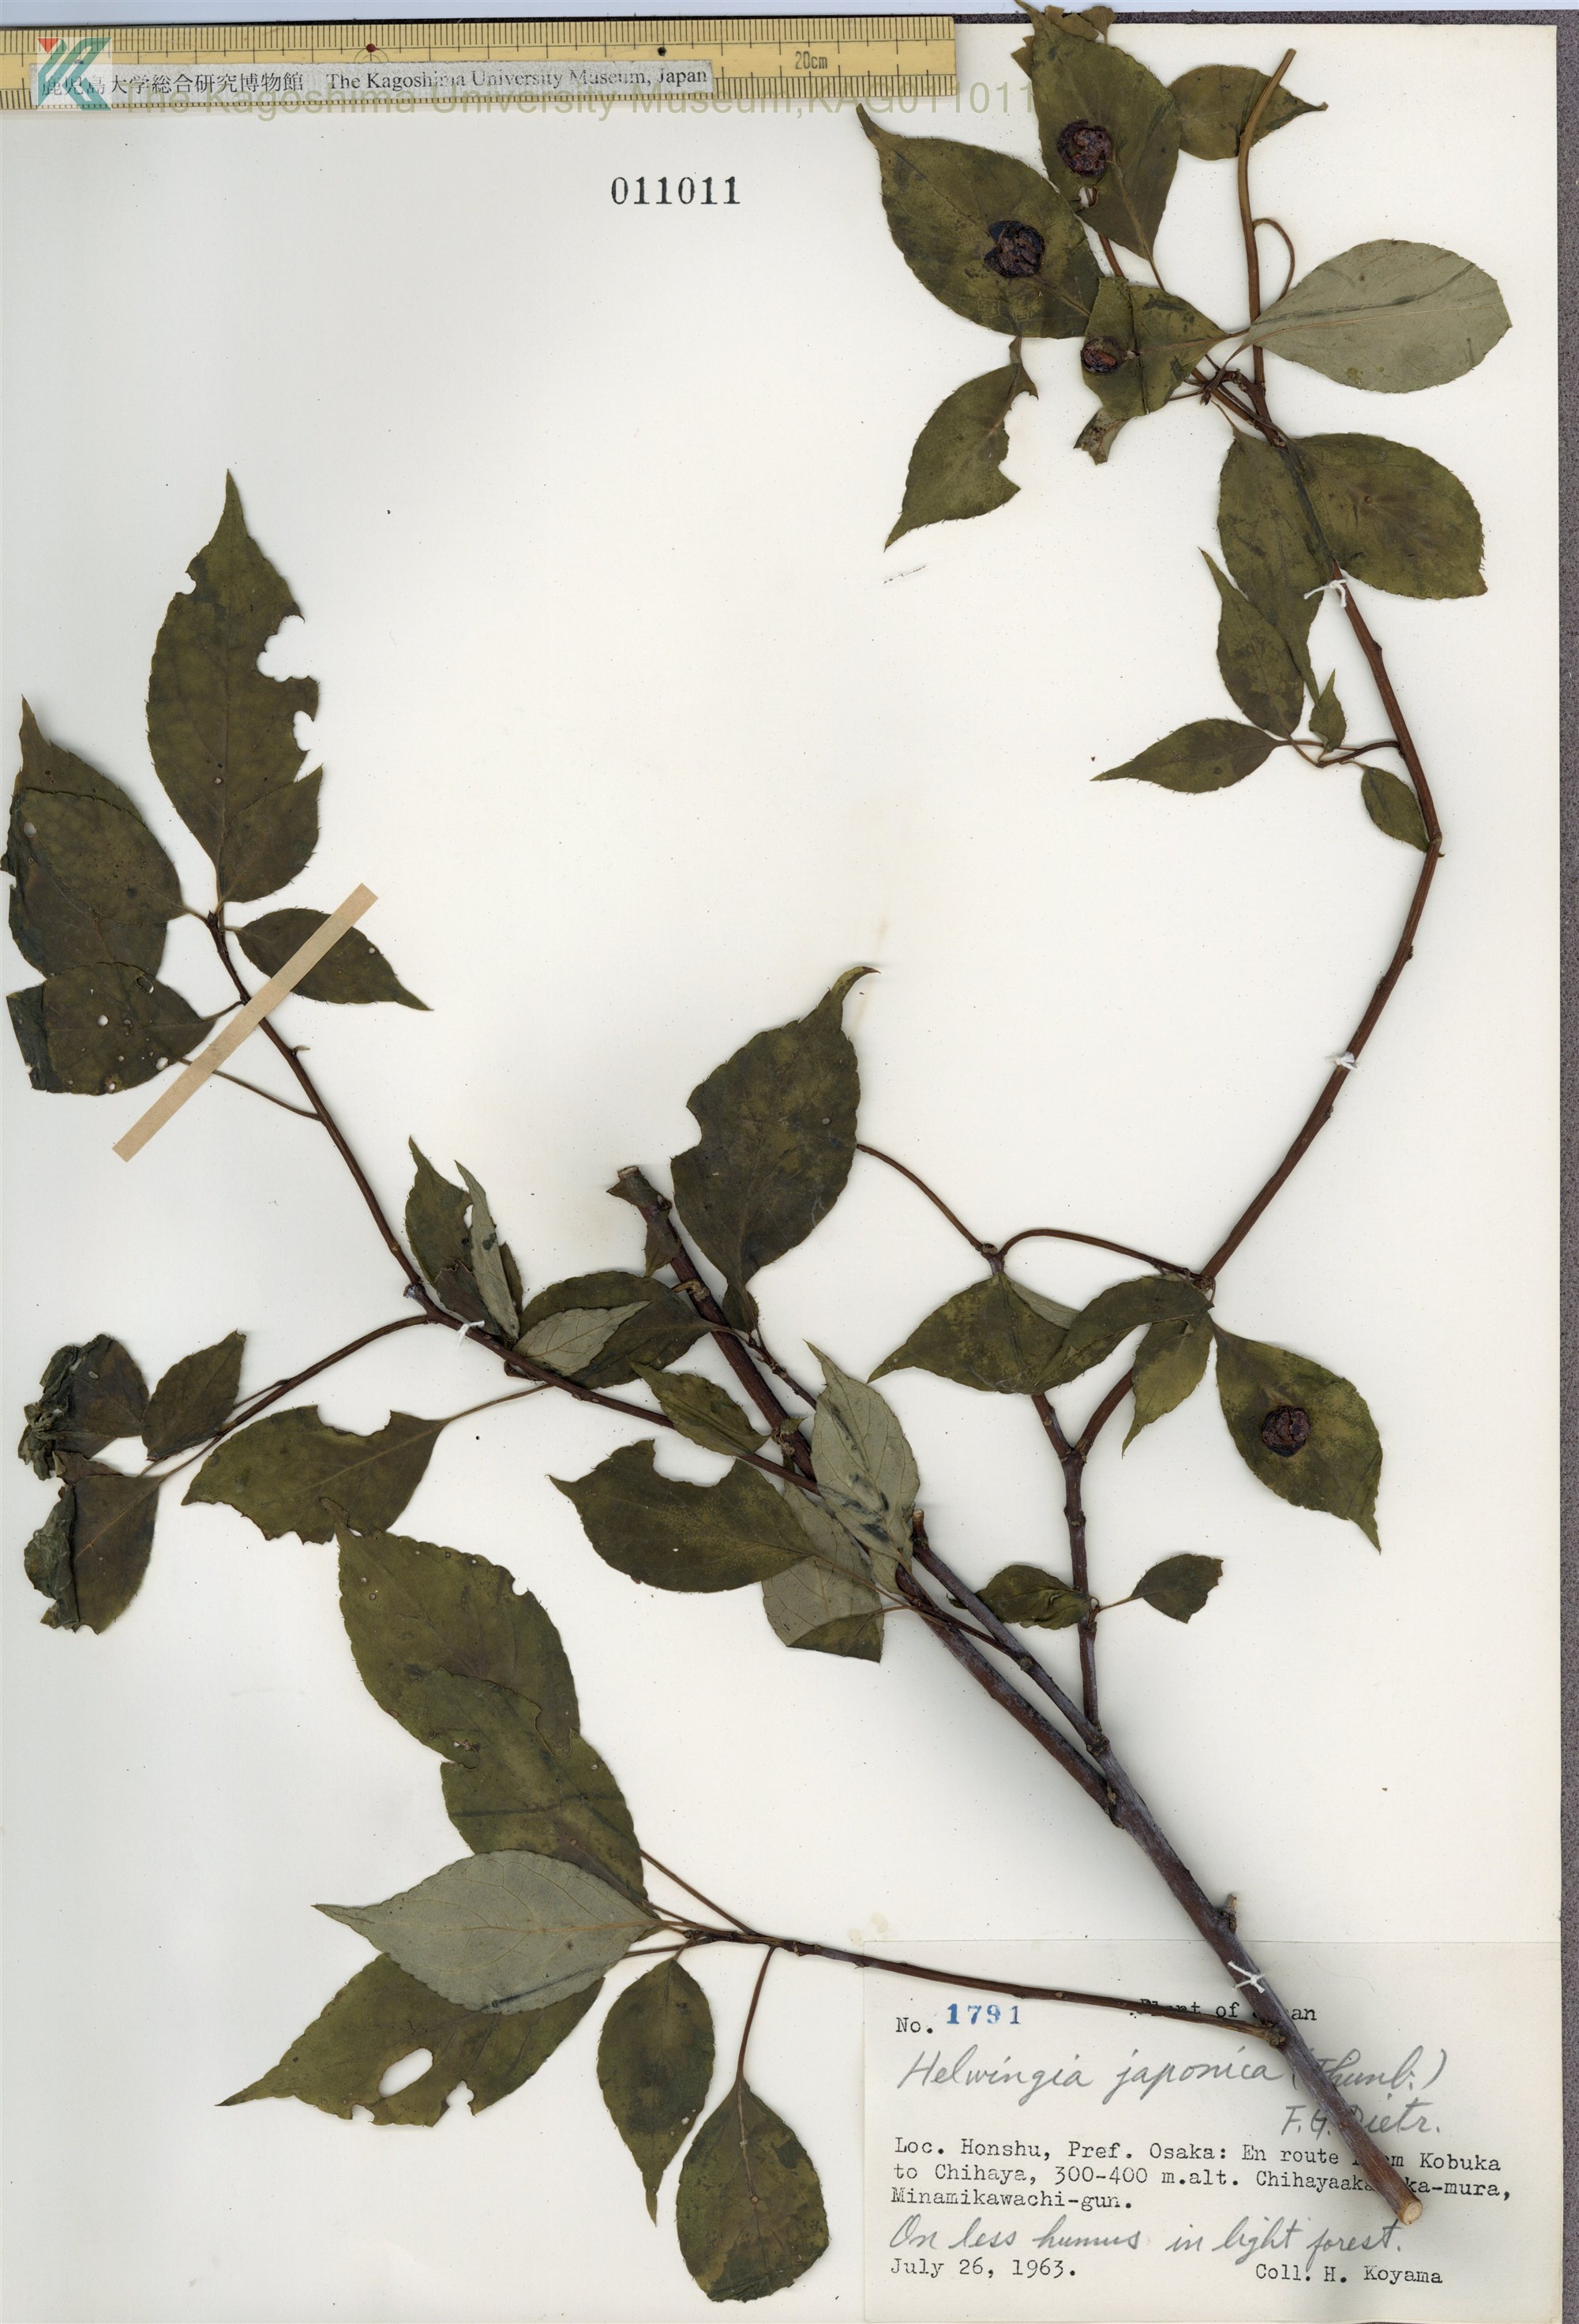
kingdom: Plantae
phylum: Tracheophyta
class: Magnoliopsida
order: Aquifoliales
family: Helwingiaceae
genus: Helwingia
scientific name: Helwingia japonica
